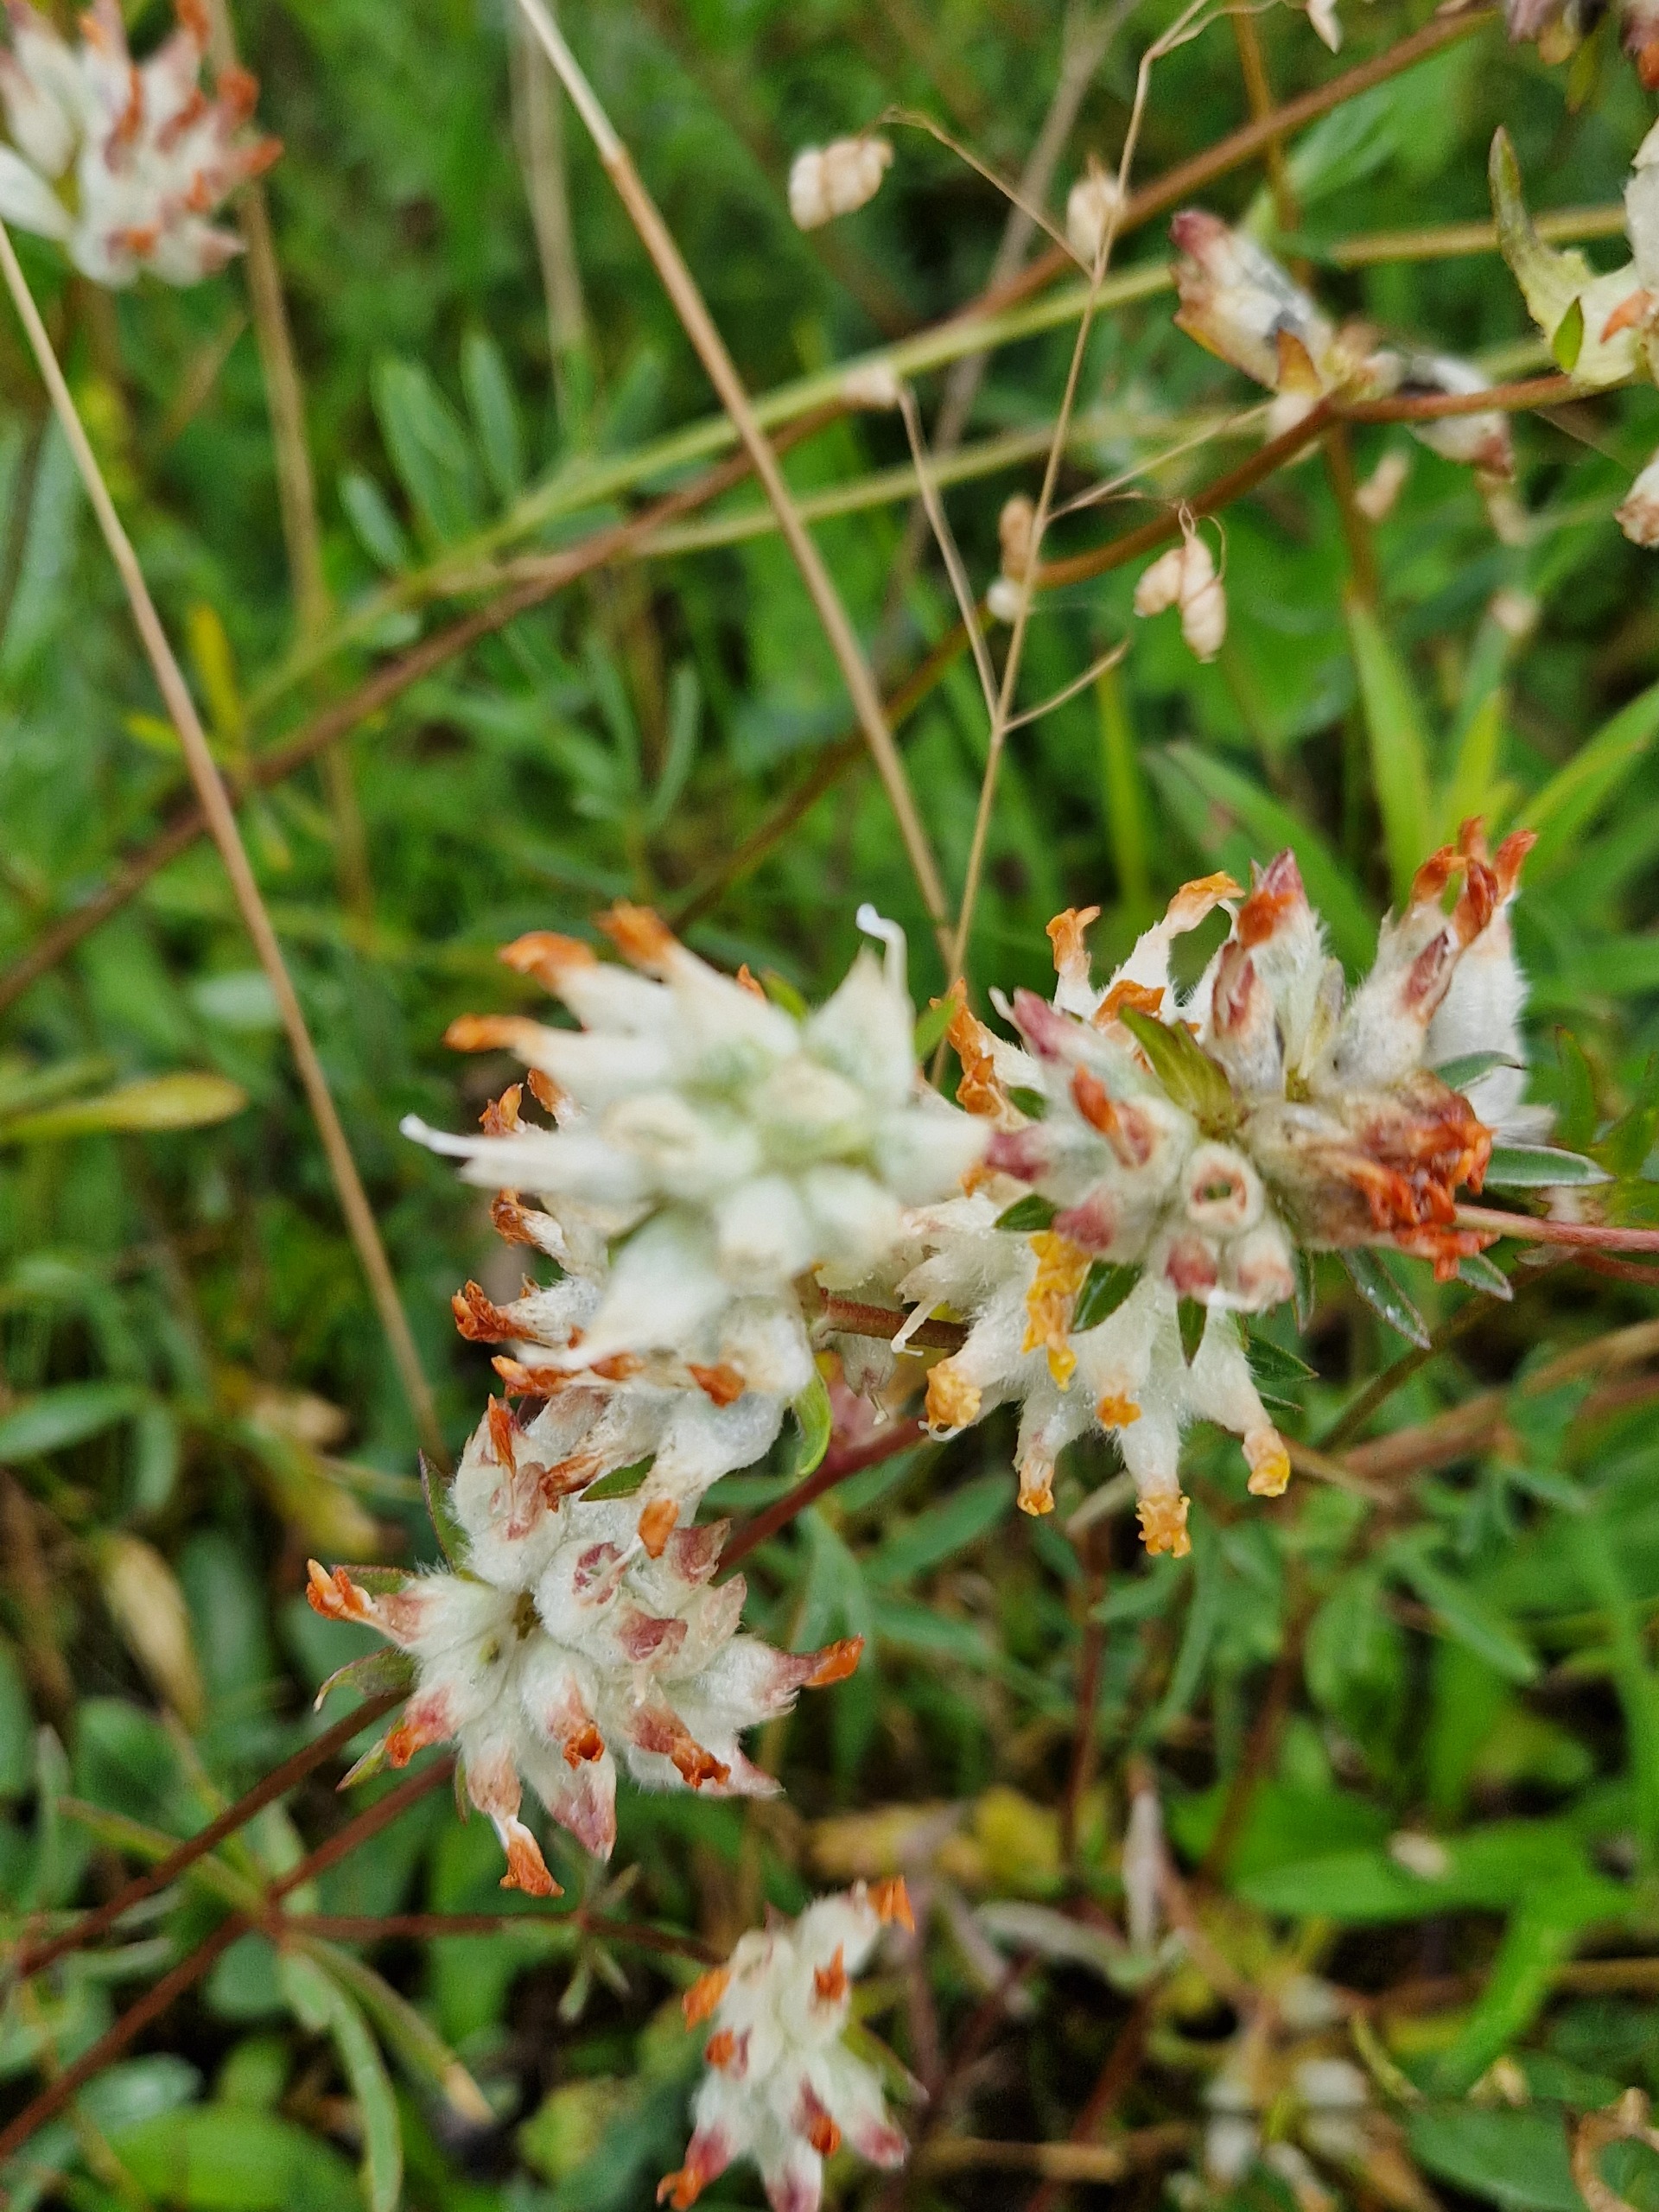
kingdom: Plantae
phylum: Tracheophyta
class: Magnoliopsida
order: Fabales
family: Fabaceae
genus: Anthyllis
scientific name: Anthyllis vulneraria
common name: Rundbælg
